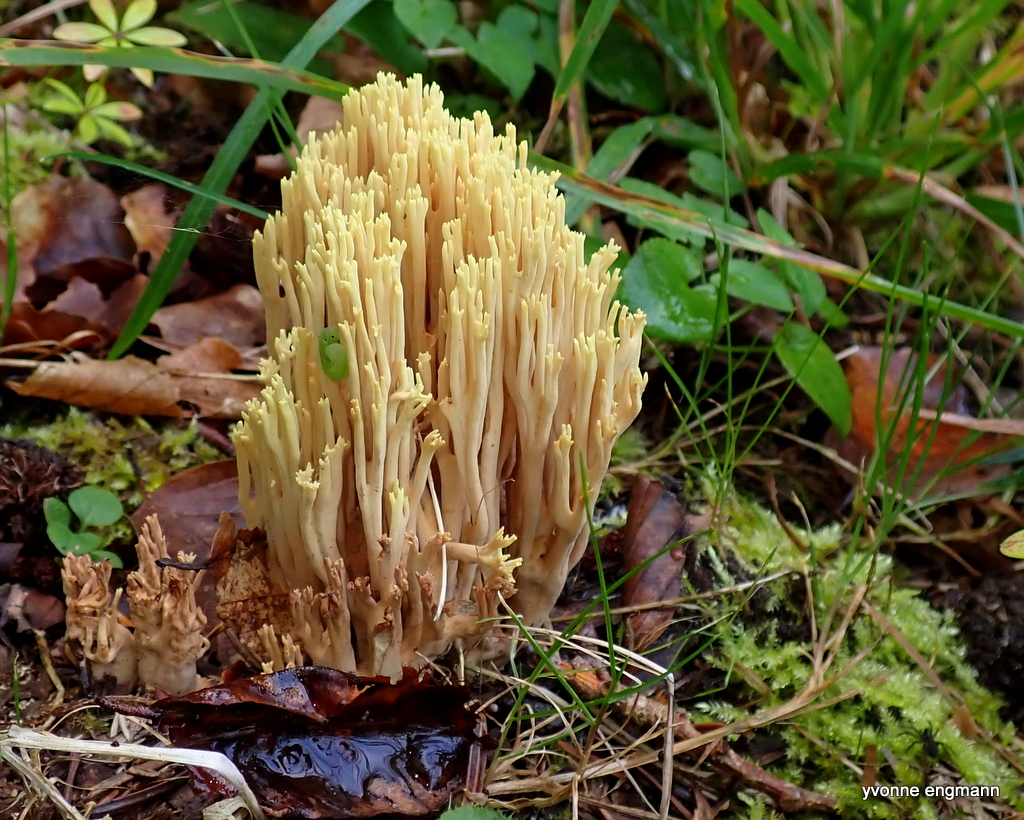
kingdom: Fungi
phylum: Basidiomycota
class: Agaricomycetes
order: Gomphales
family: Gomphaceae
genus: Ramaria
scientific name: Ramaria stricta
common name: rank koralsvamp
